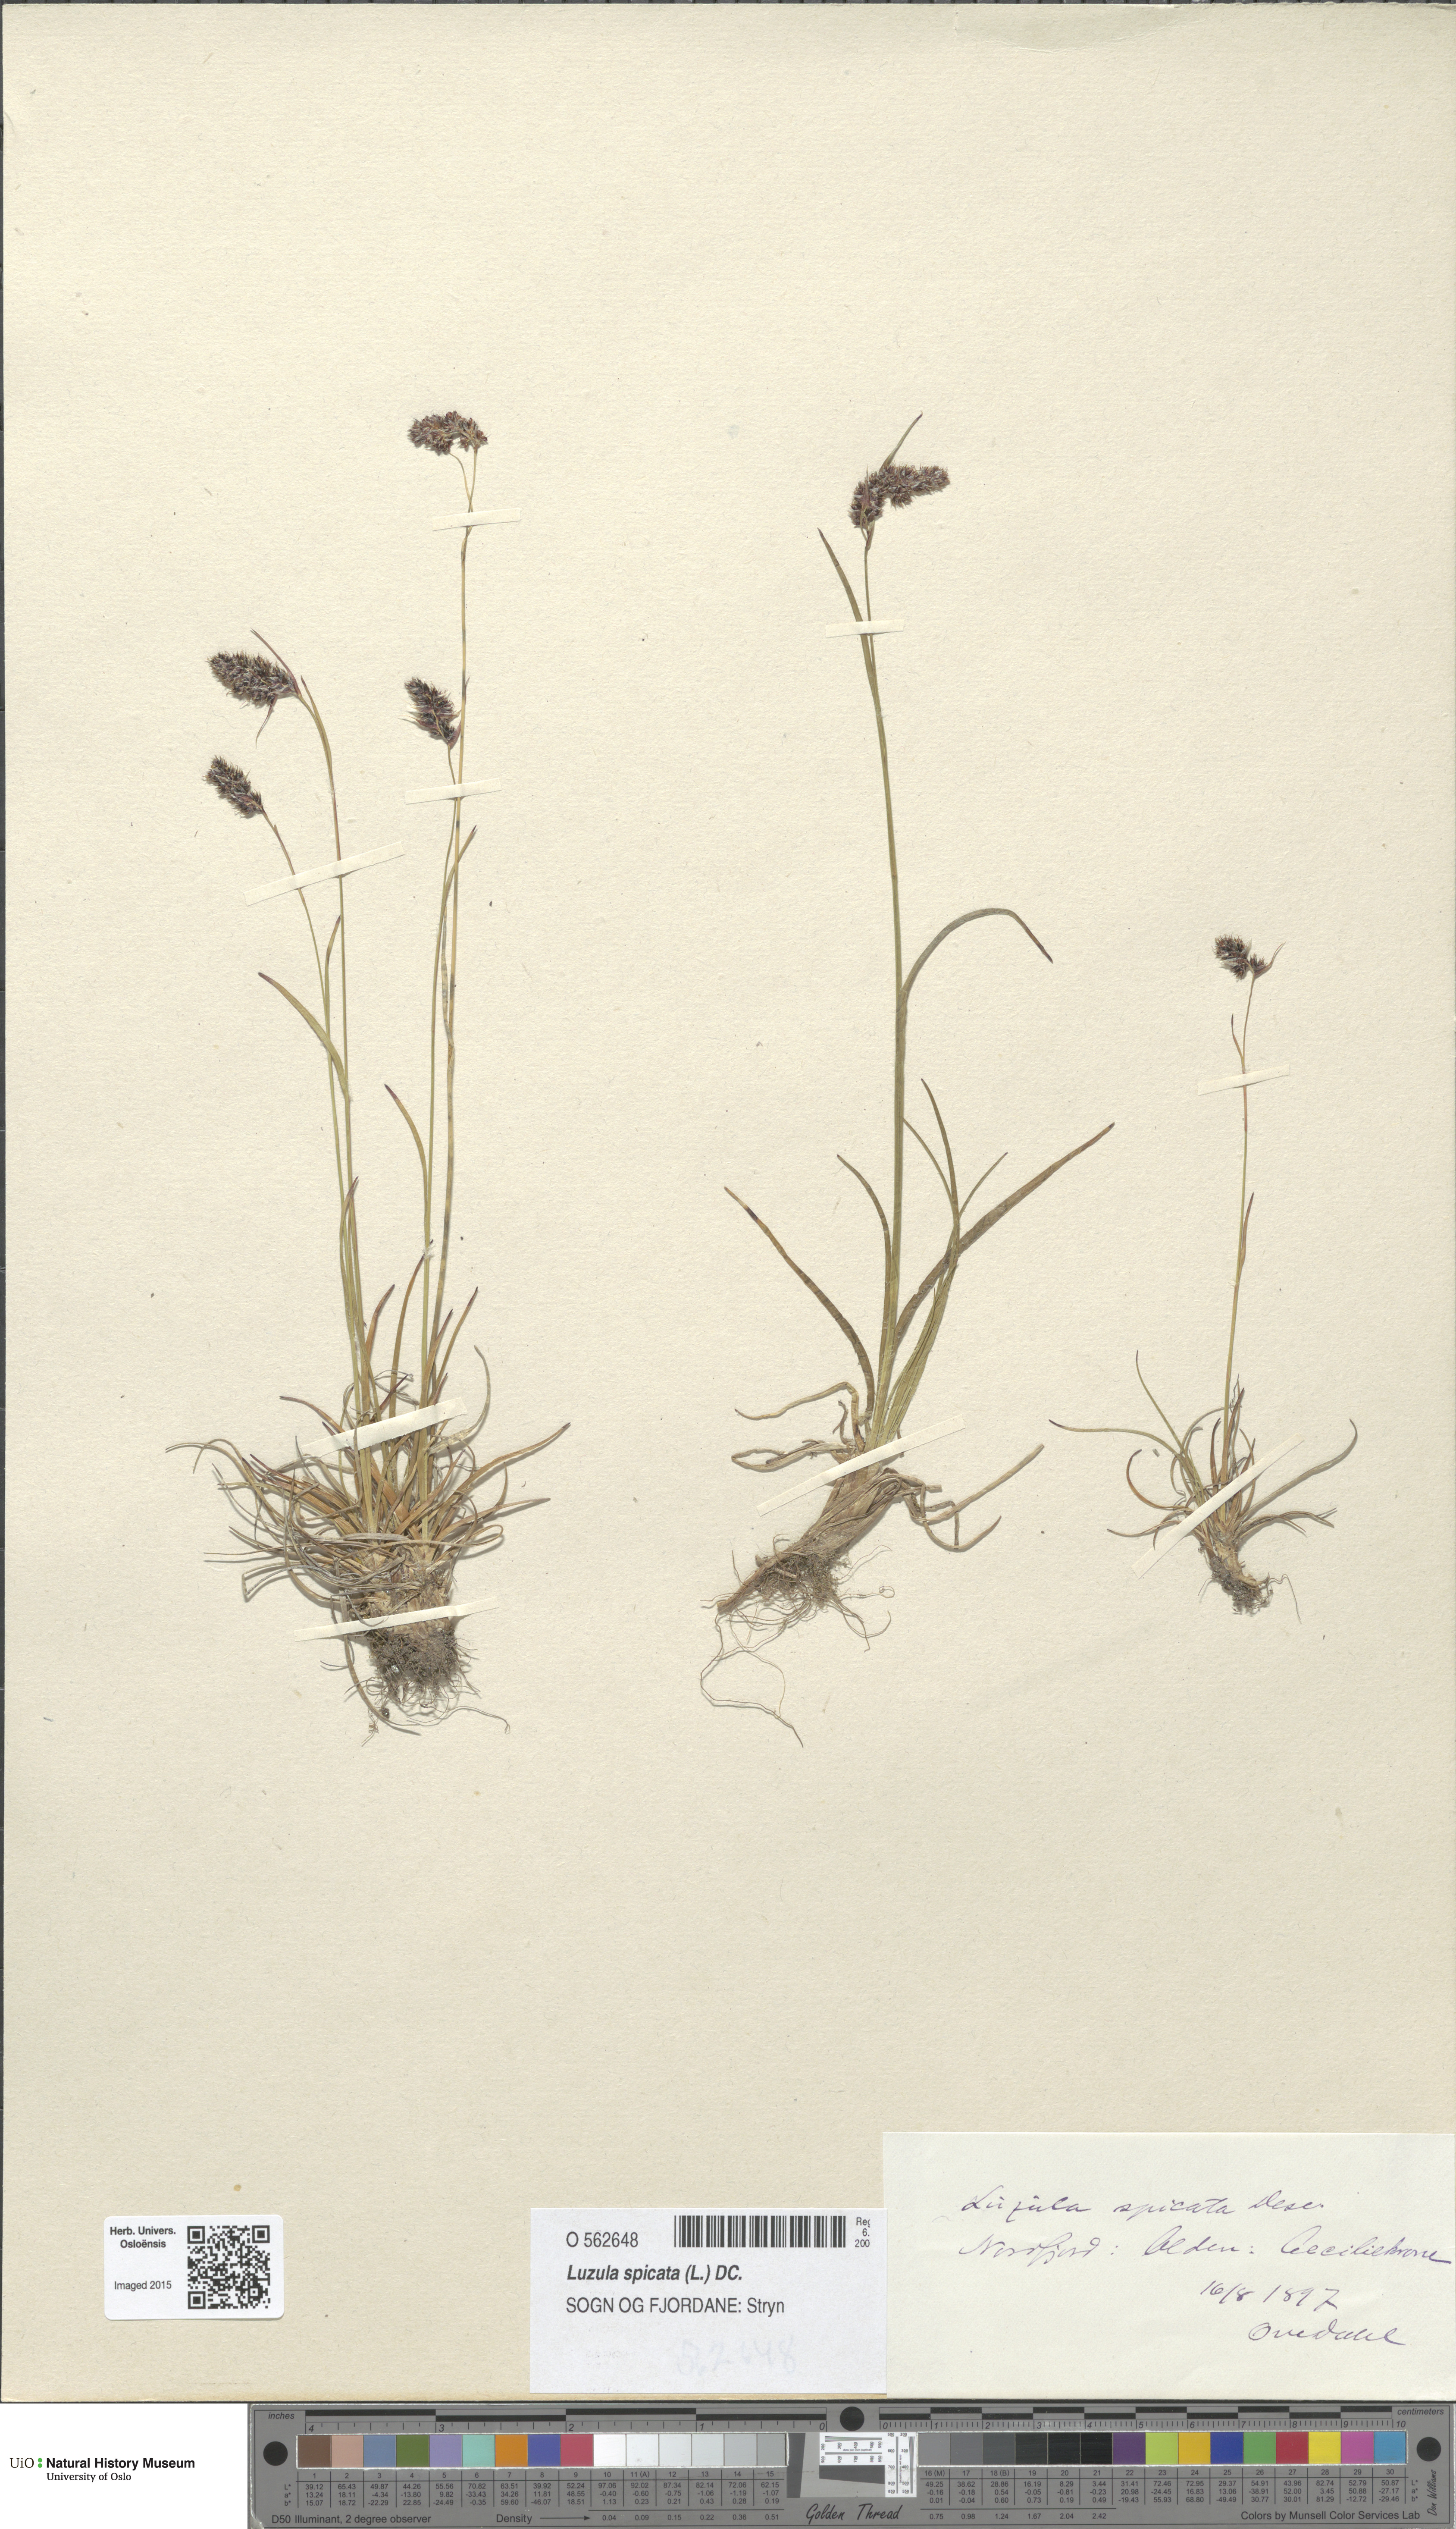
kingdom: Plantae
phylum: Tracheophyta
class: Liliopsida
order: Poales
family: Juncaceae
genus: Luzula
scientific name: Luzula spicata
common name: Spiked wood-rush
